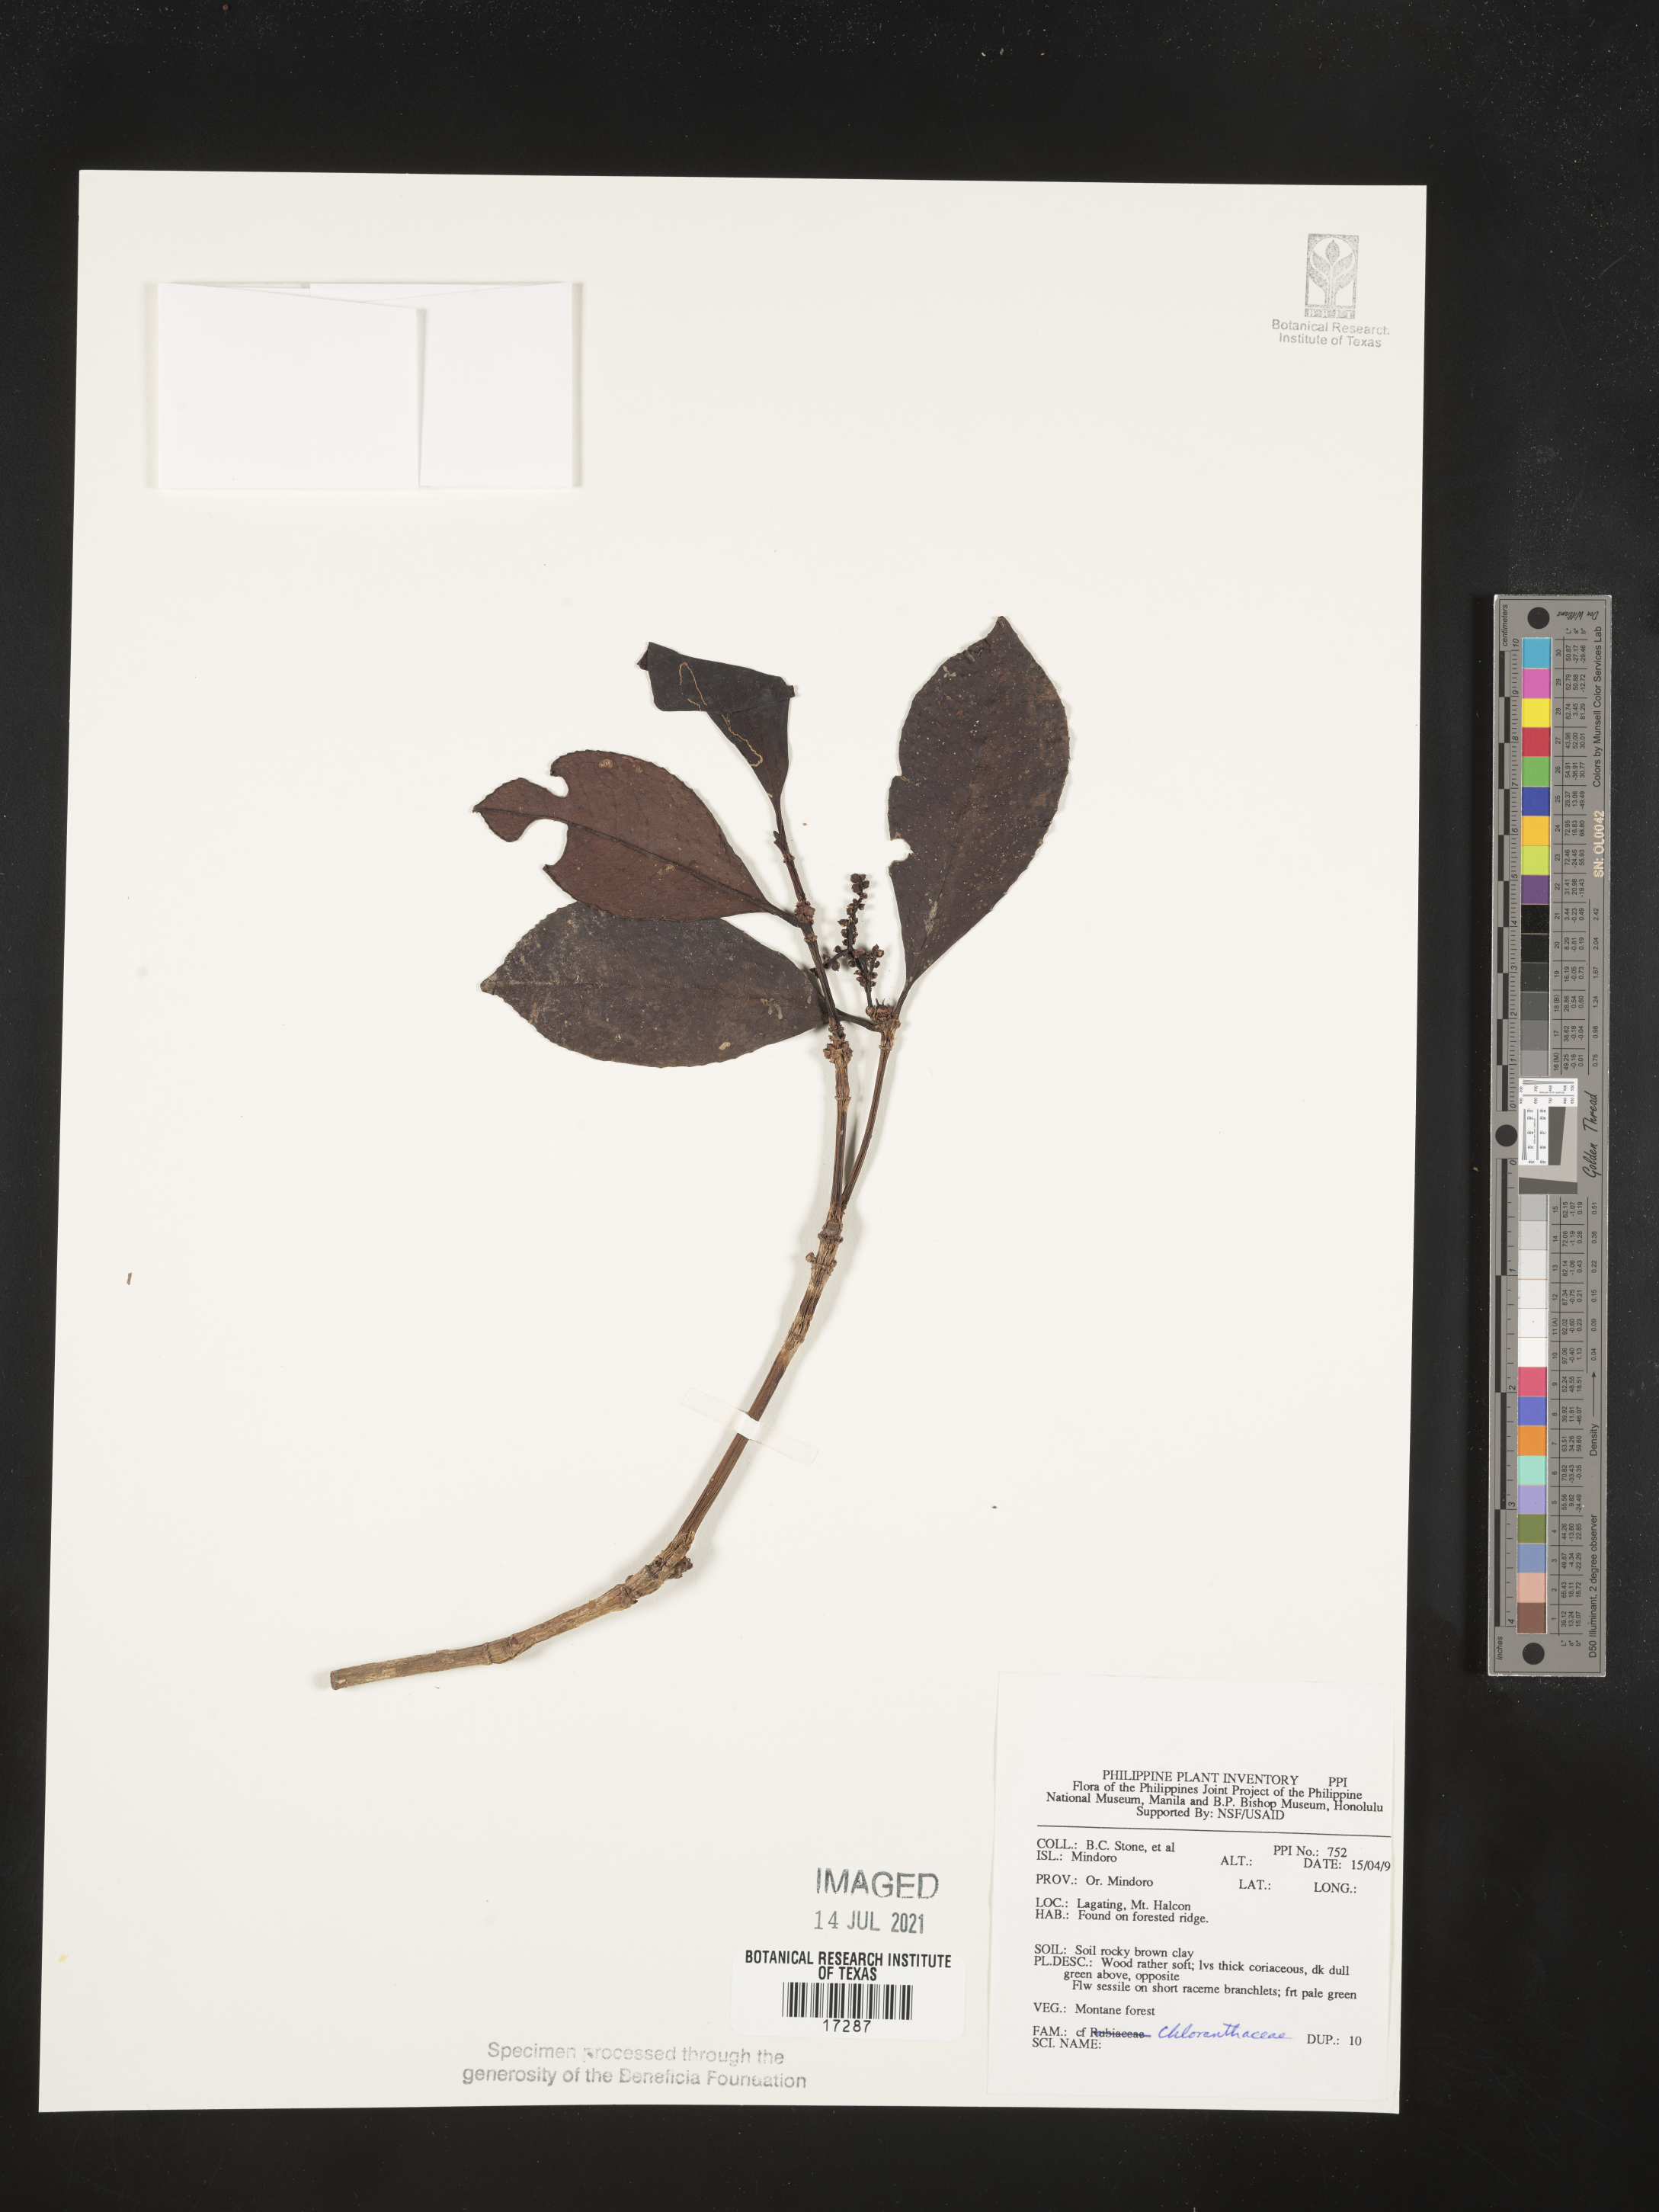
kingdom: Plantae
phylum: Tracheophyta
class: Magnoliopsida
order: Chloranthales
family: Chloranthaceae
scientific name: Chloranthaceae
